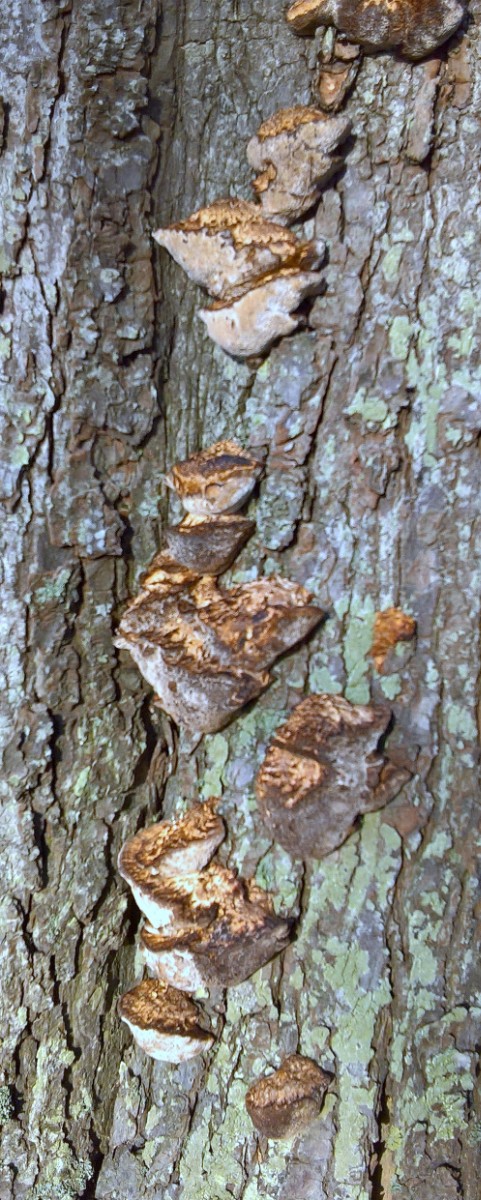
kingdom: Fungi
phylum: Basidiomycota
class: Agaricomycetes
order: Polyporales
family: Polyporaceae
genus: Daedaleopsis
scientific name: Daedaleopsis confragosa
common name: rødmende læderporesvamp
